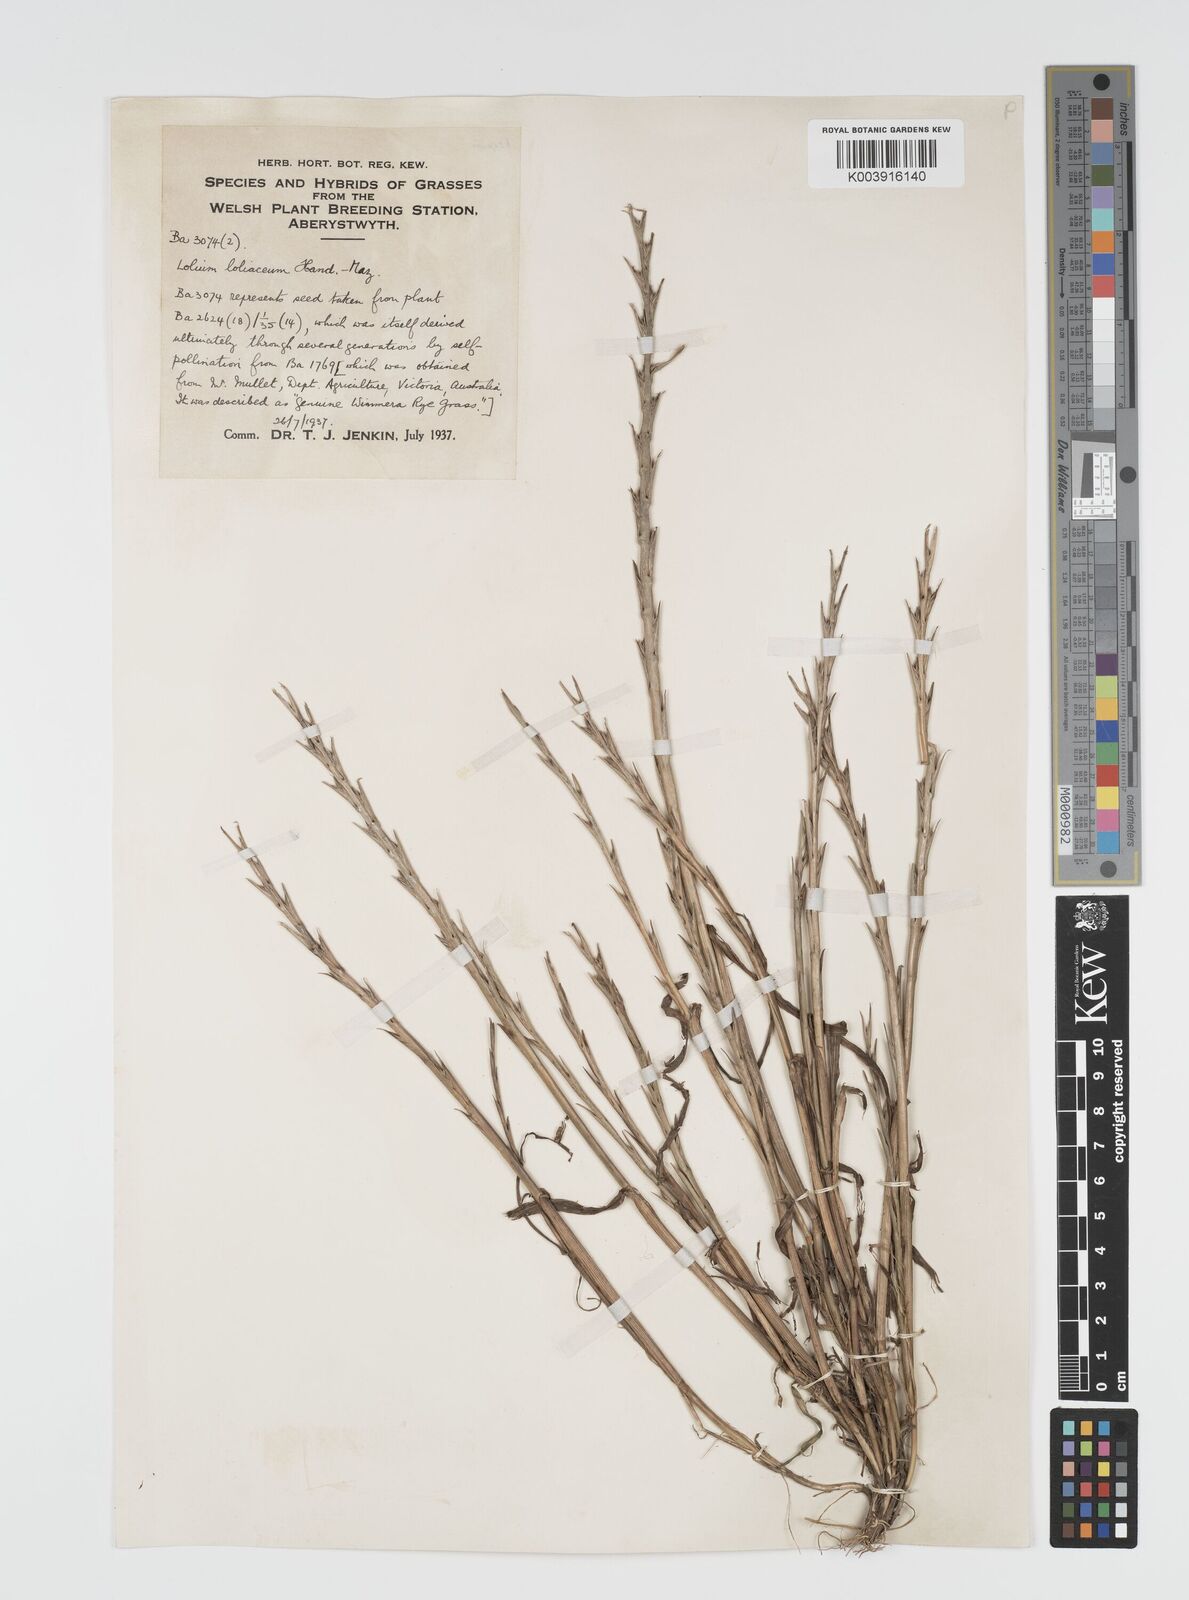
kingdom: Plantae
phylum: Tracheophyta
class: Liliopsida
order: Poales
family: Poaceae
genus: Lolium
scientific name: Lolium rigidum
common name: Wimmera ryegrass
